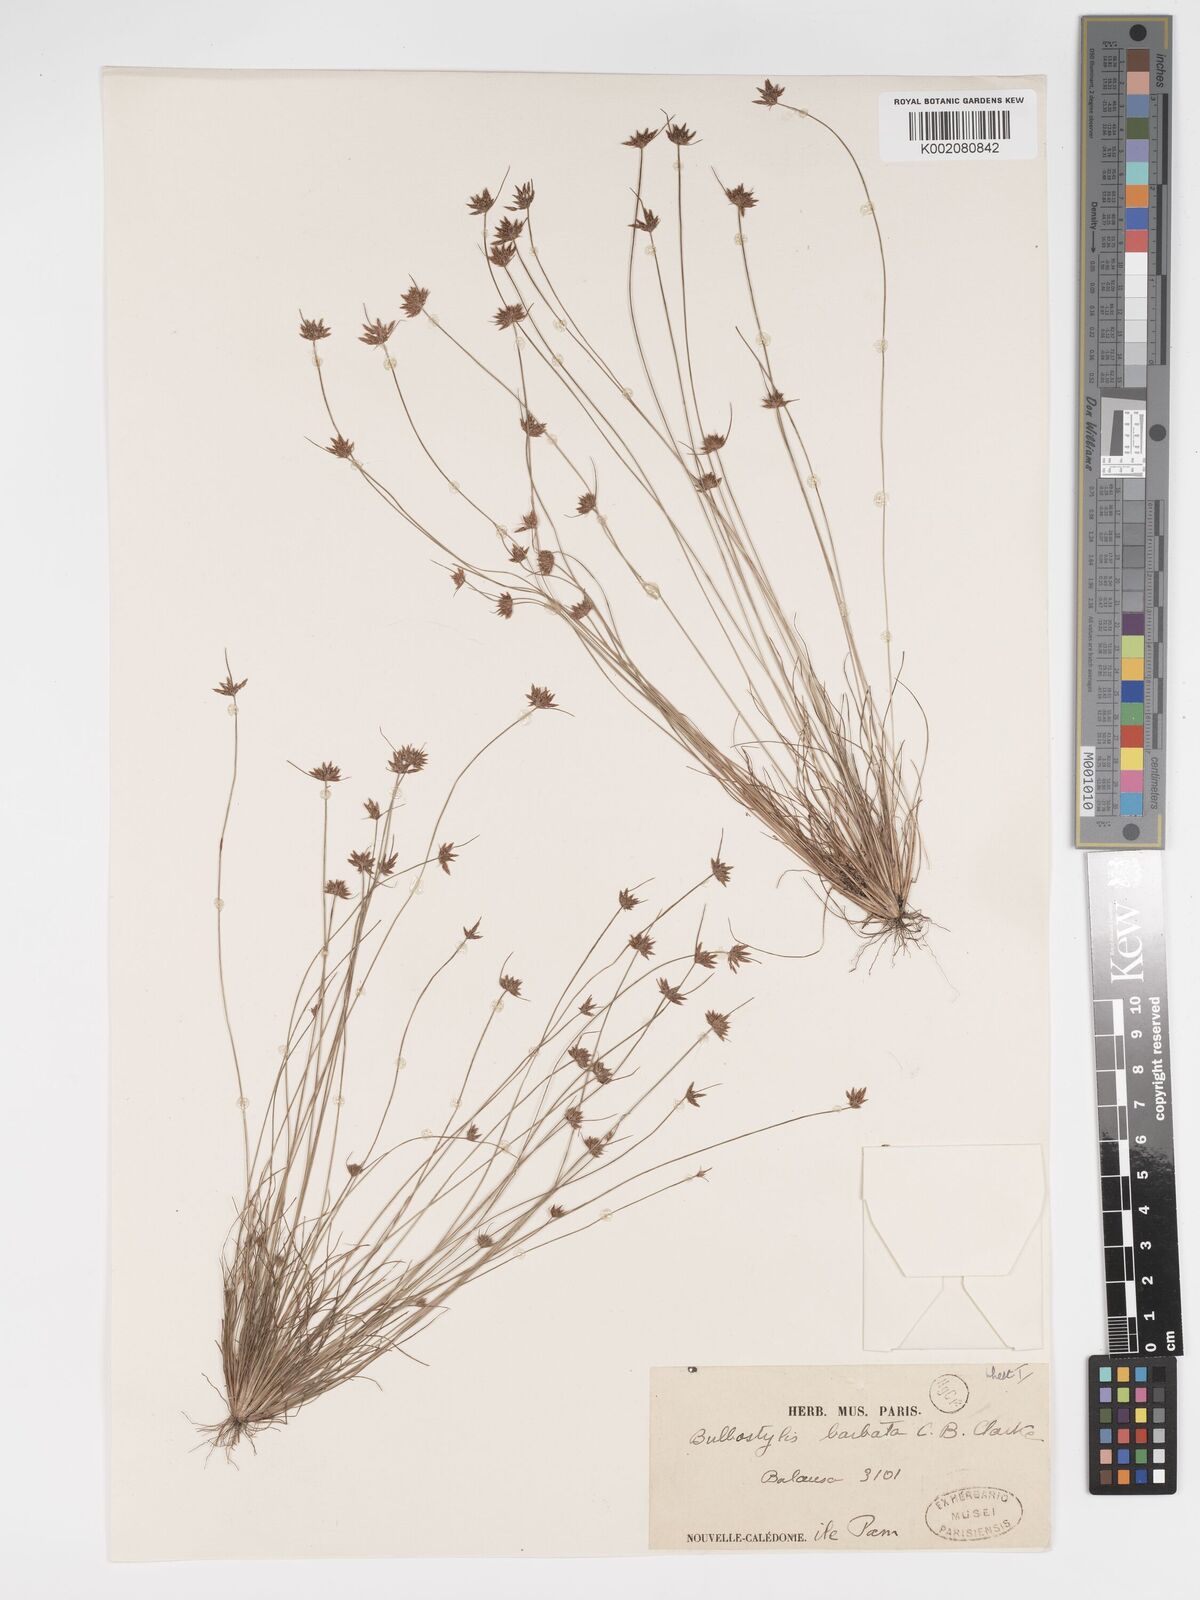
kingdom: Plantae
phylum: Tracheophyta
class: Liliopsida
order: Poales
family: Cyperaceae
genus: Bulbostylis
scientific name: Bulbostylis barbata
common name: Watergrass
